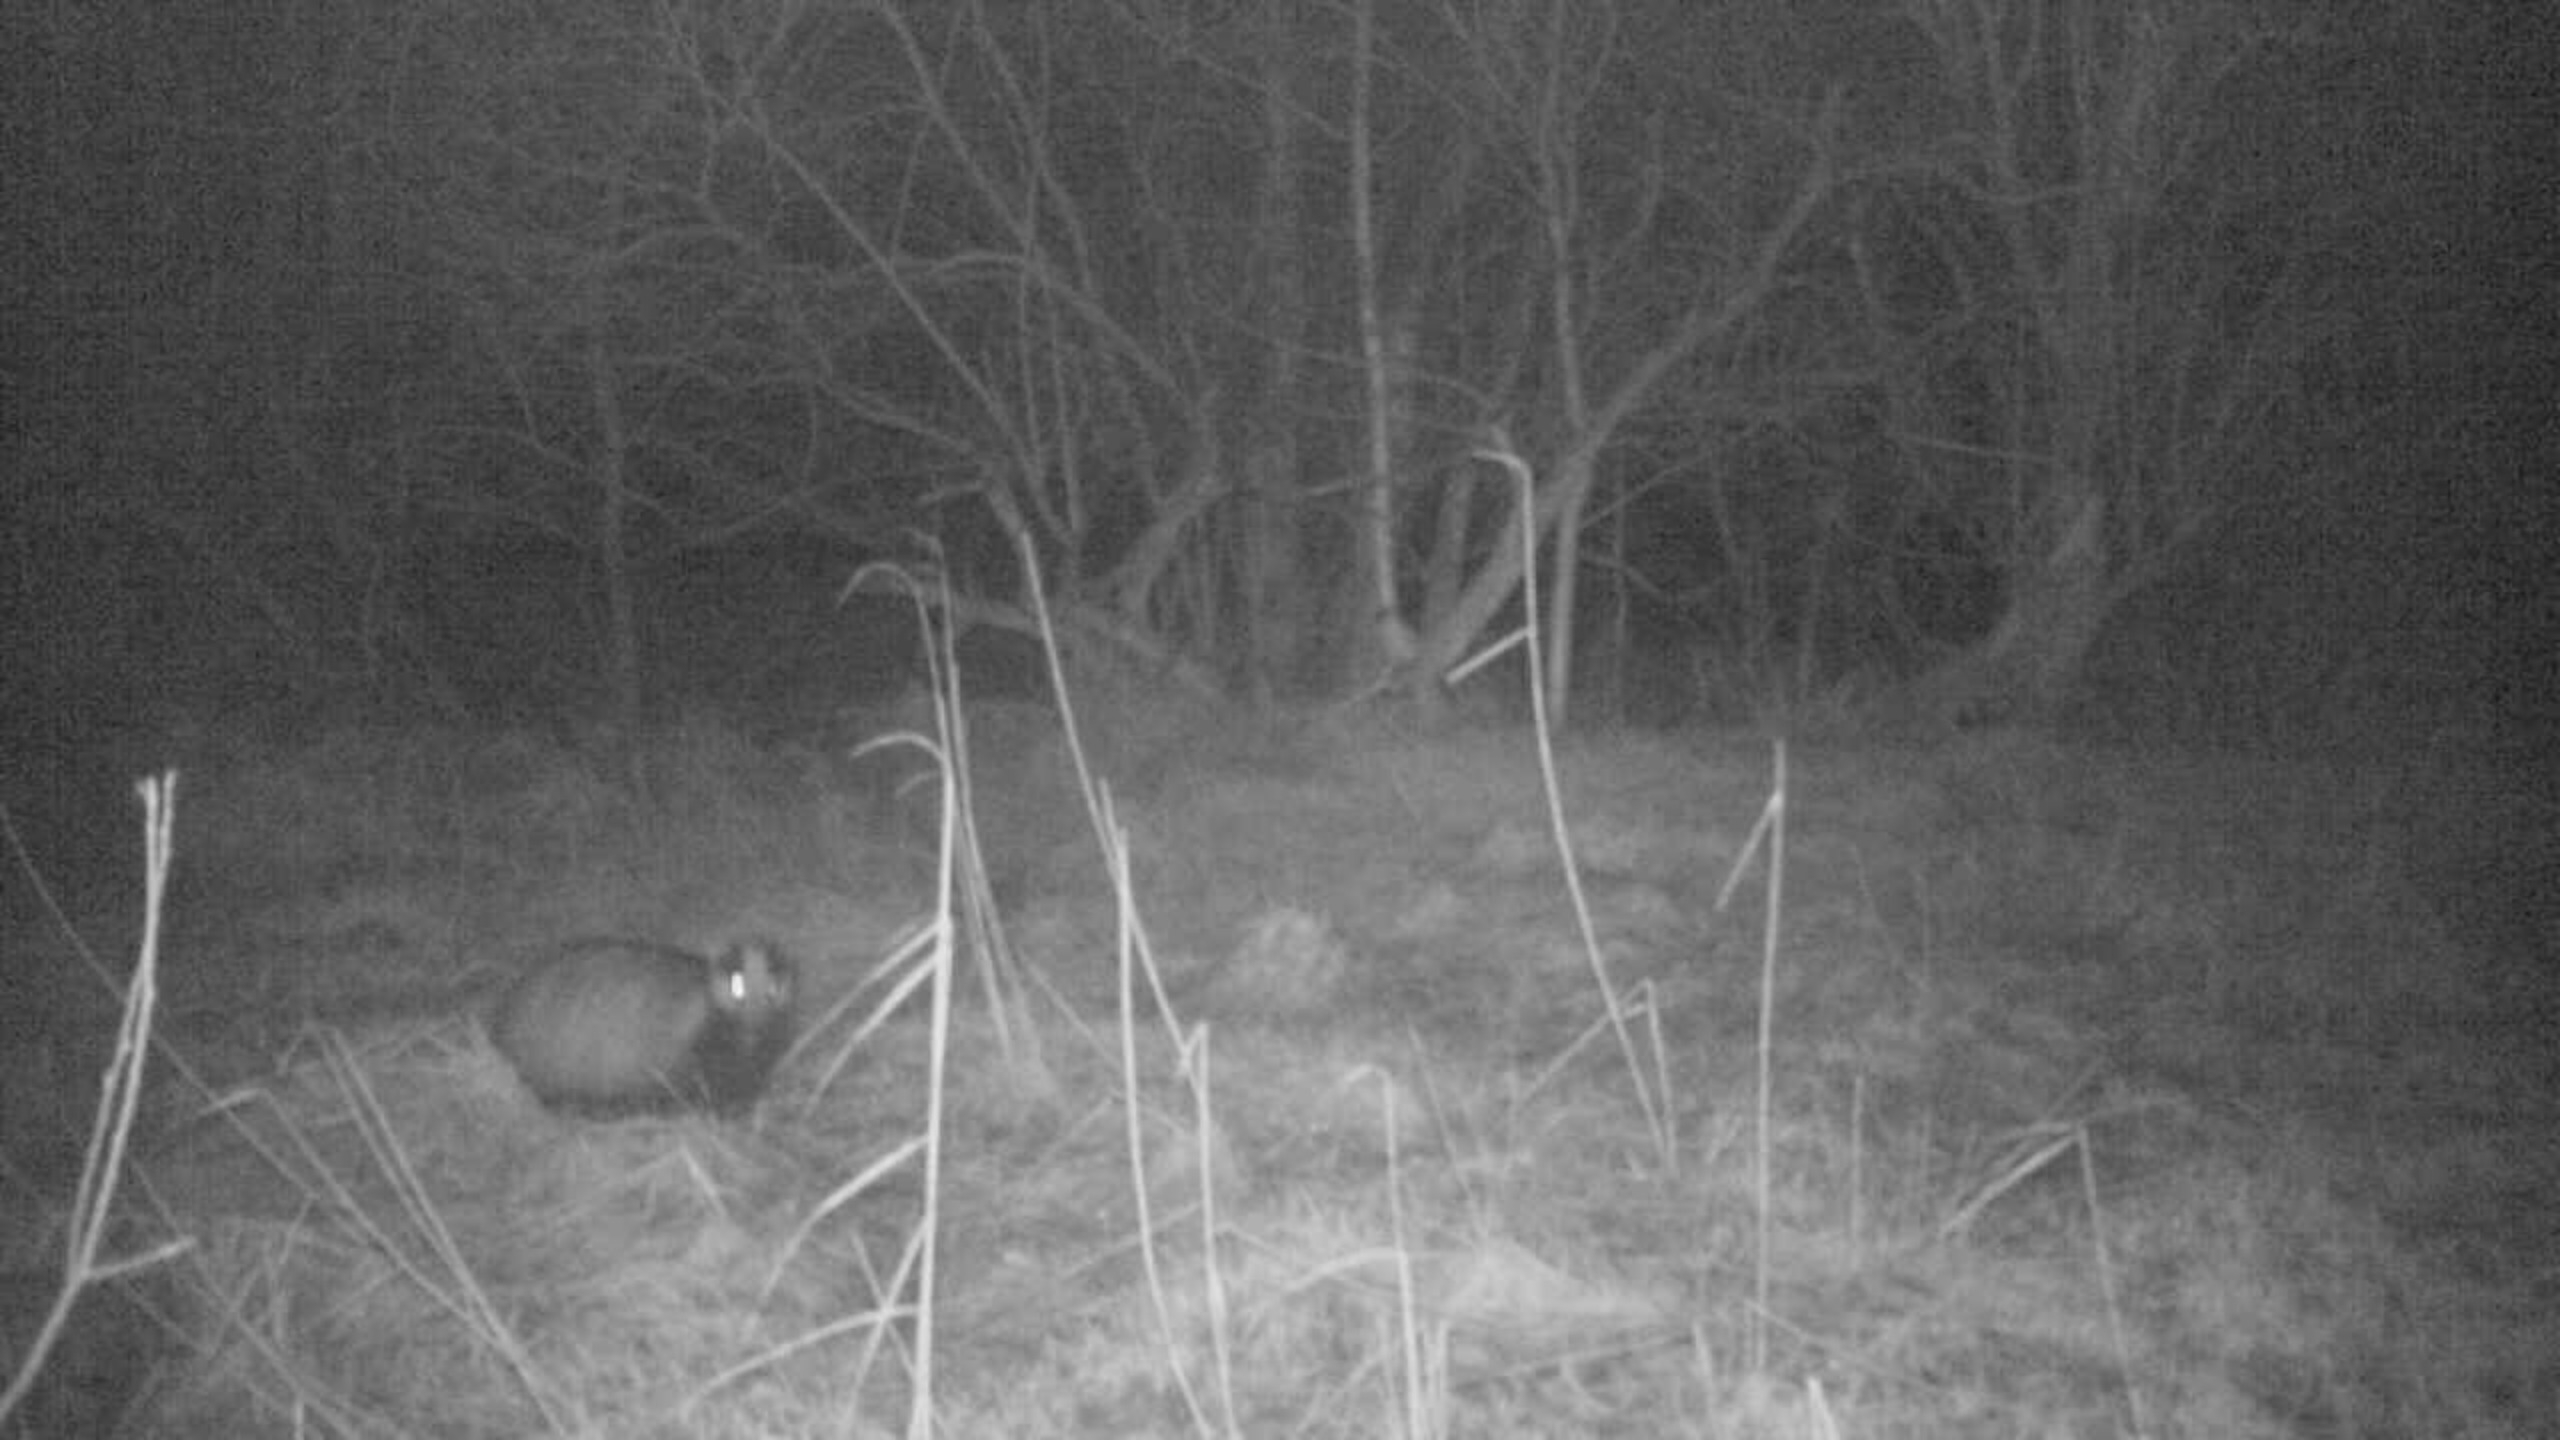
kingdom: Animalia
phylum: Chordata
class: Mammalia
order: Carnivora
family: Mustelidae
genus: Meles
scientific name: Meles meles
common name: Grævling
